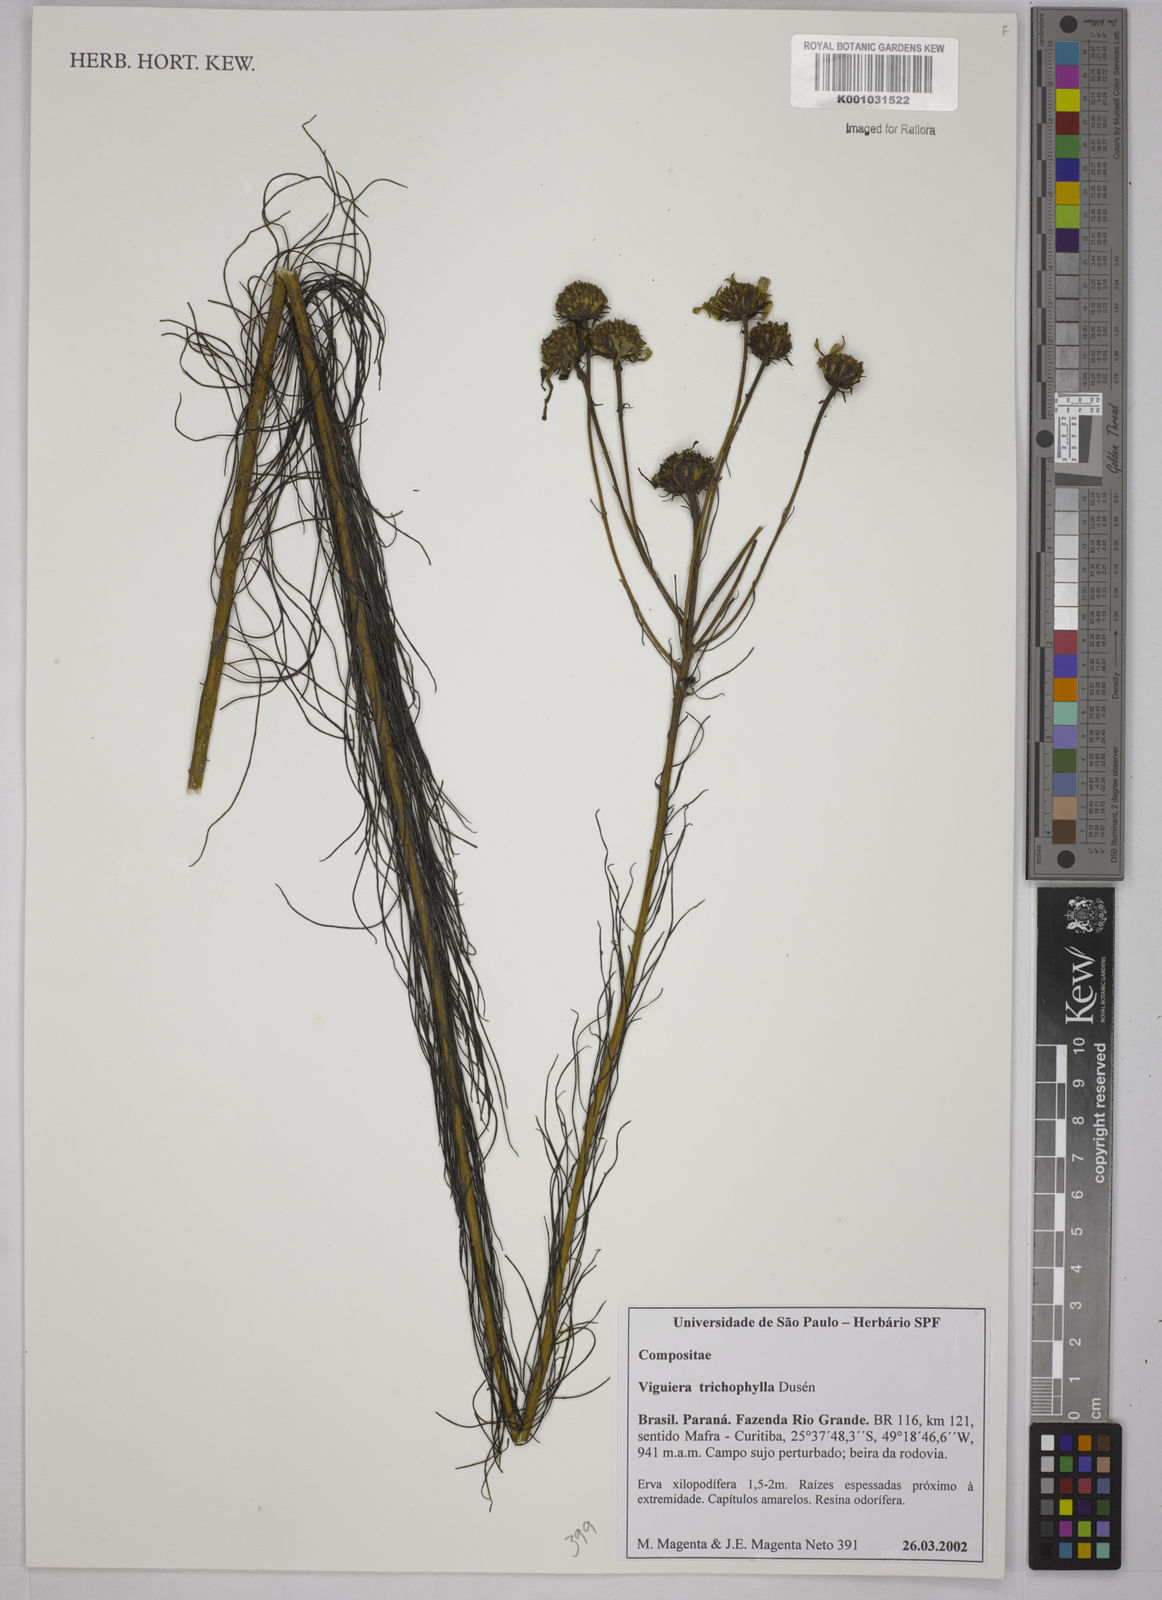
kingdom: Plantae
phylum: Tracheophyta
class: Magnoliopsida
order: Asterales
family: Asteraceae
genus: Viguiera
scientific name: Viguiera
